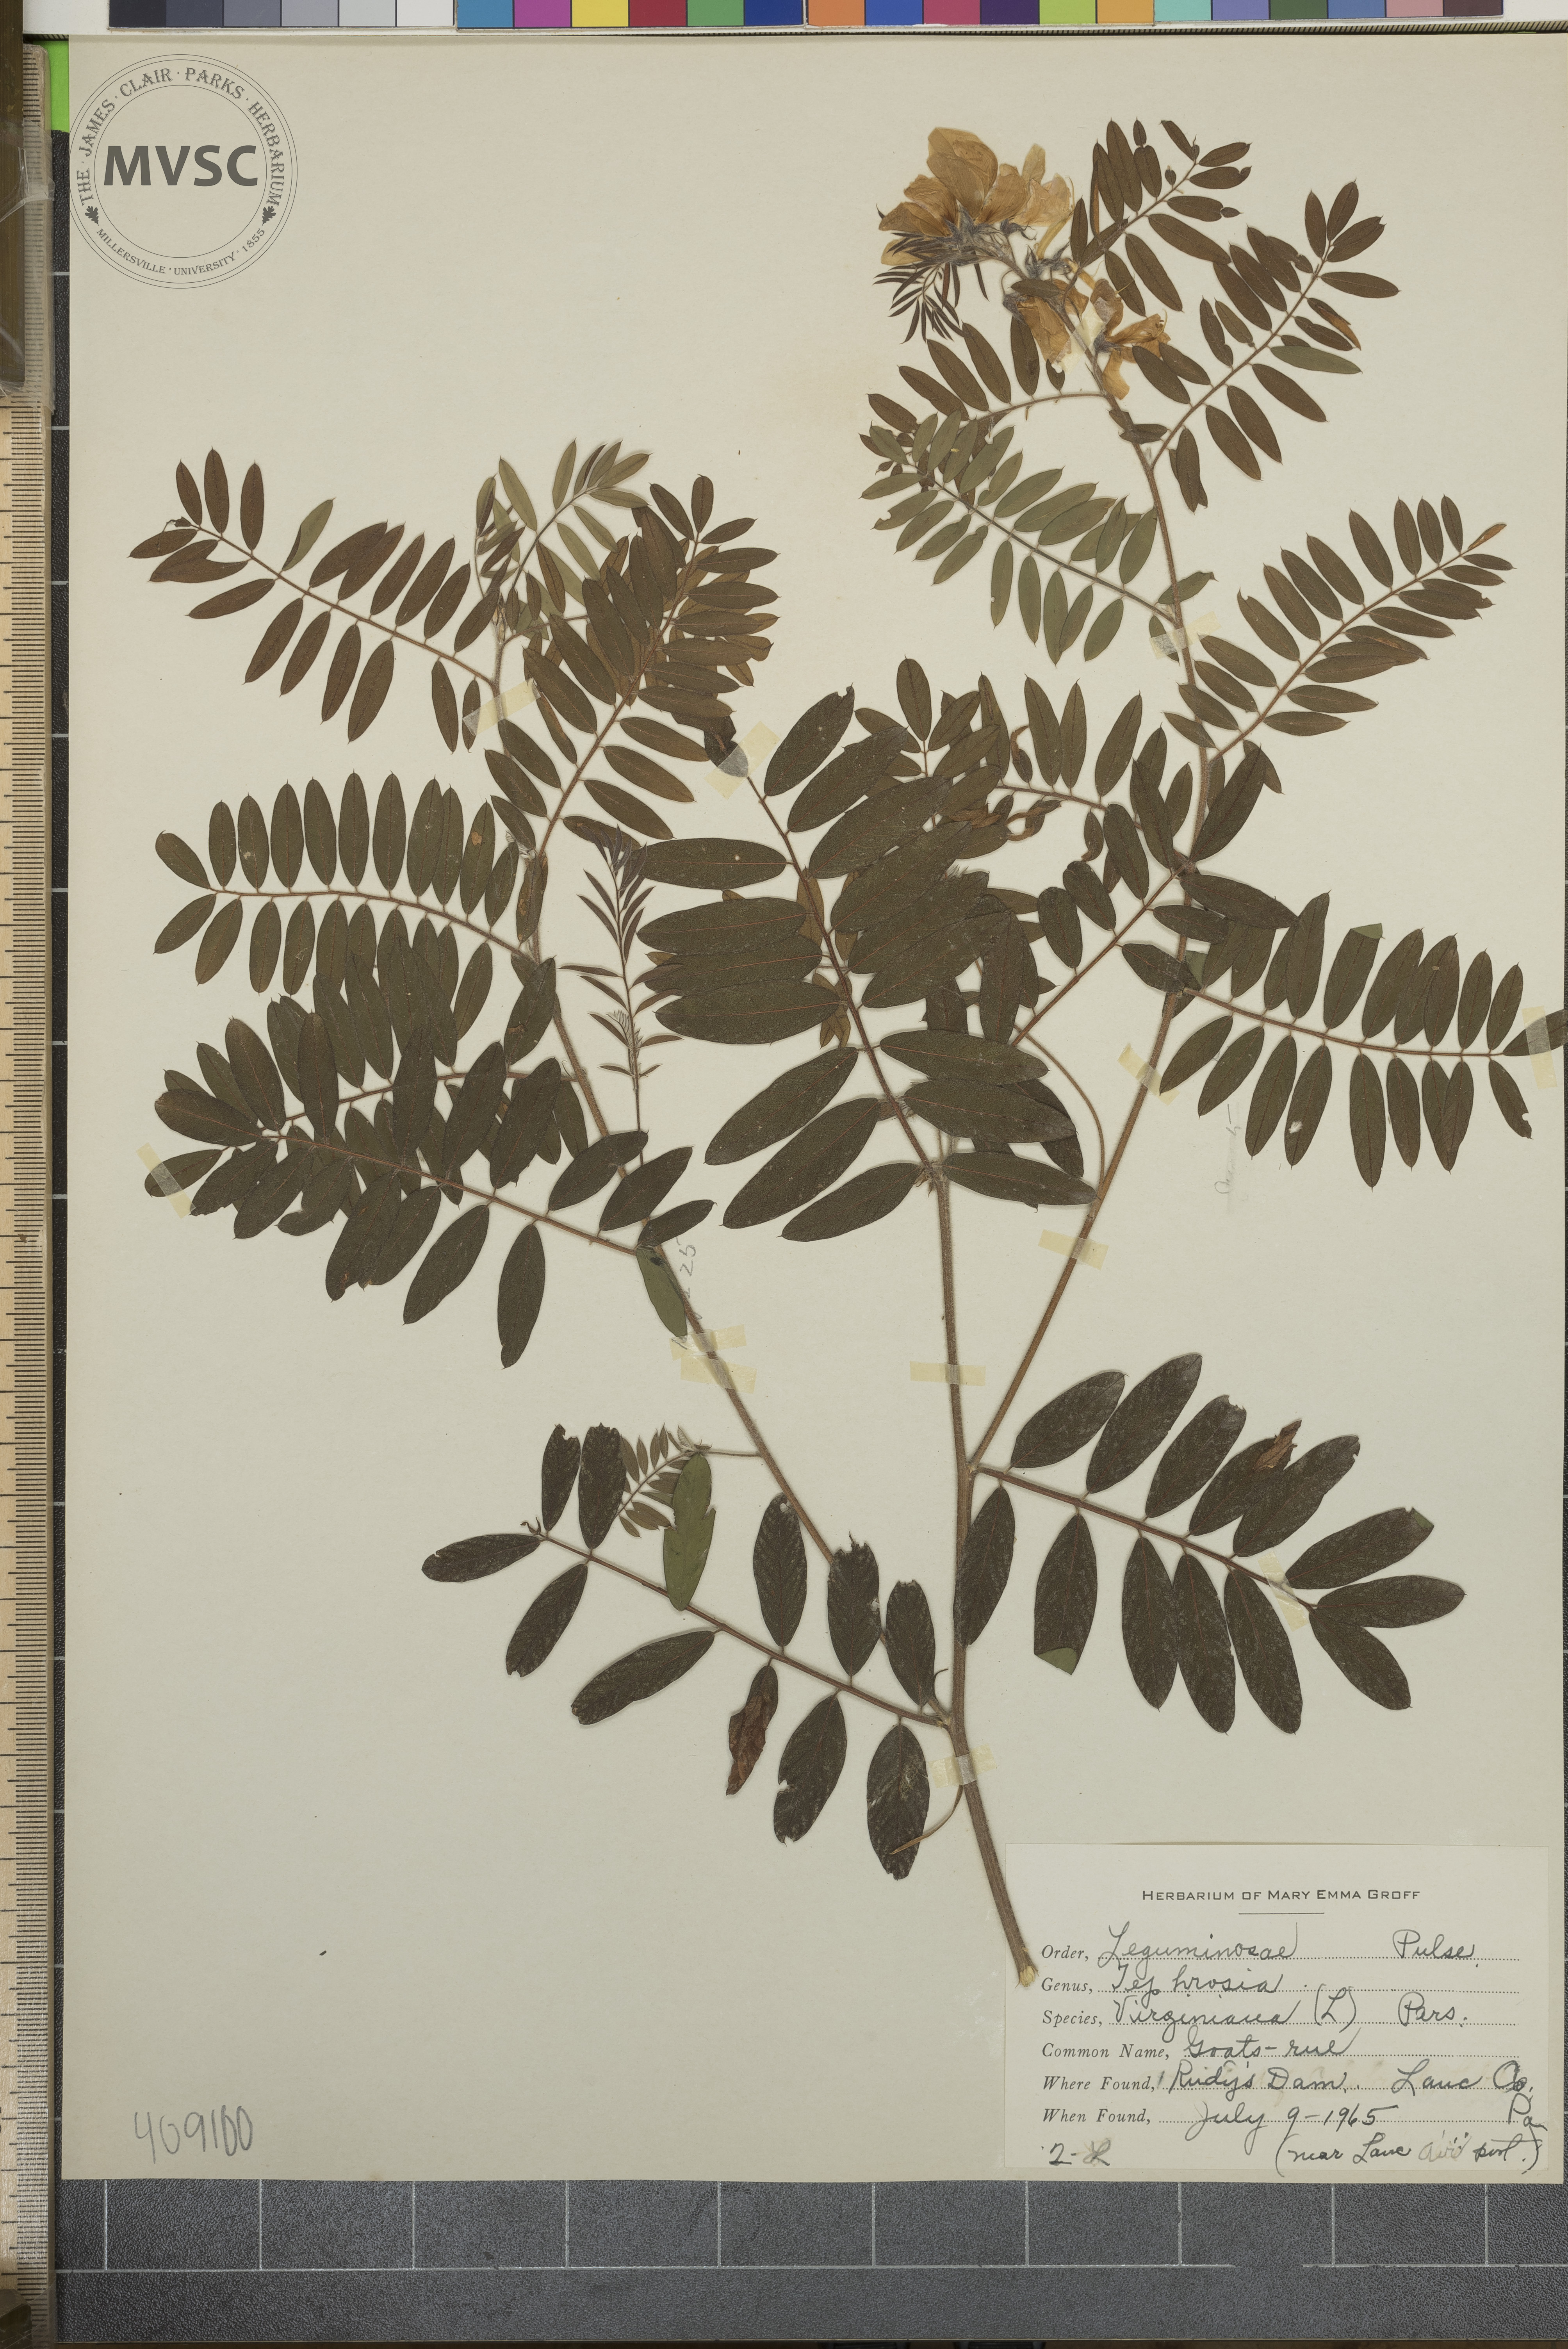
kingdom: Plantae
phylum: Tracheophyta
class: Magnoliopsida
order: Fabales
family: Fabaceae
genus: Tephrosia
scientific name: Tephrosia virginiana
